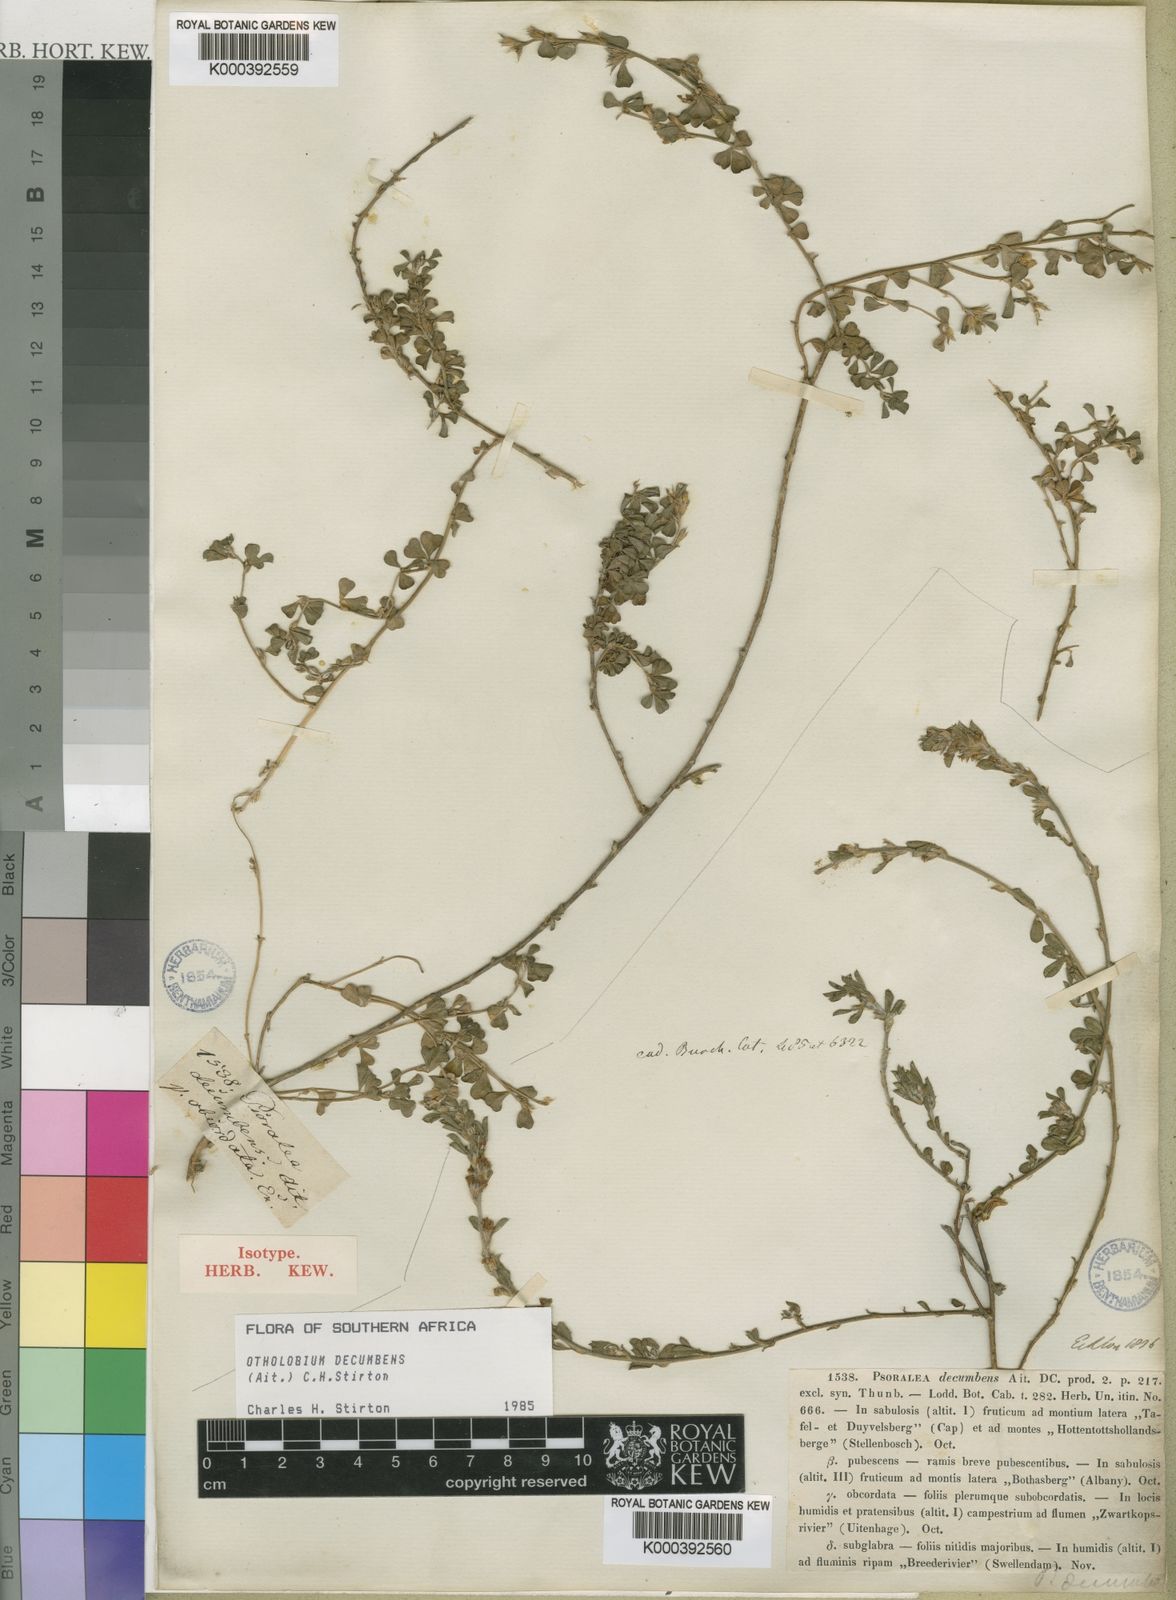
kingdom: Plantae
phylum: Tracheophyta
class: Magnoliopsida
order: Fabales
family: Fabaceae
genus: Psoralea
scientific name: Psoralea Otholobium decumbens
